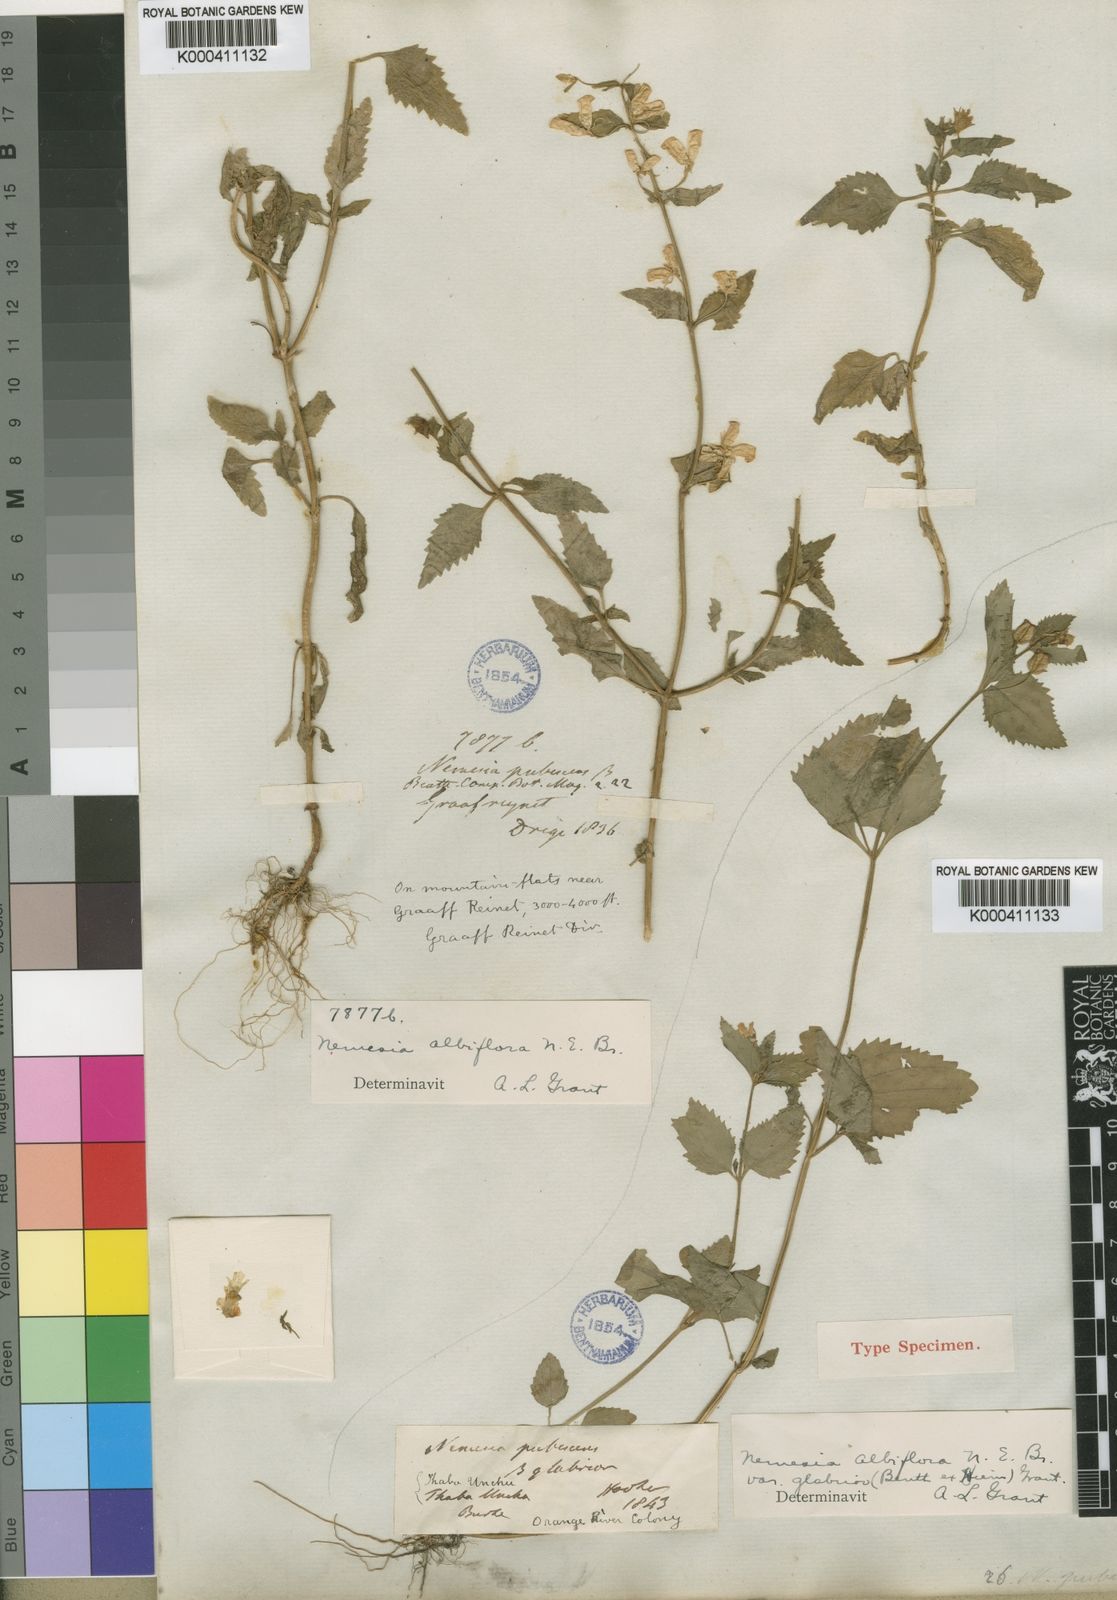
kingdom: Plantae
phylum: Tracheophyta
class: Magnoliopsida
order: Lamiales
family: Scrophulariaceae
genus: Nemesia
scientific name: Nemesia albiflora
